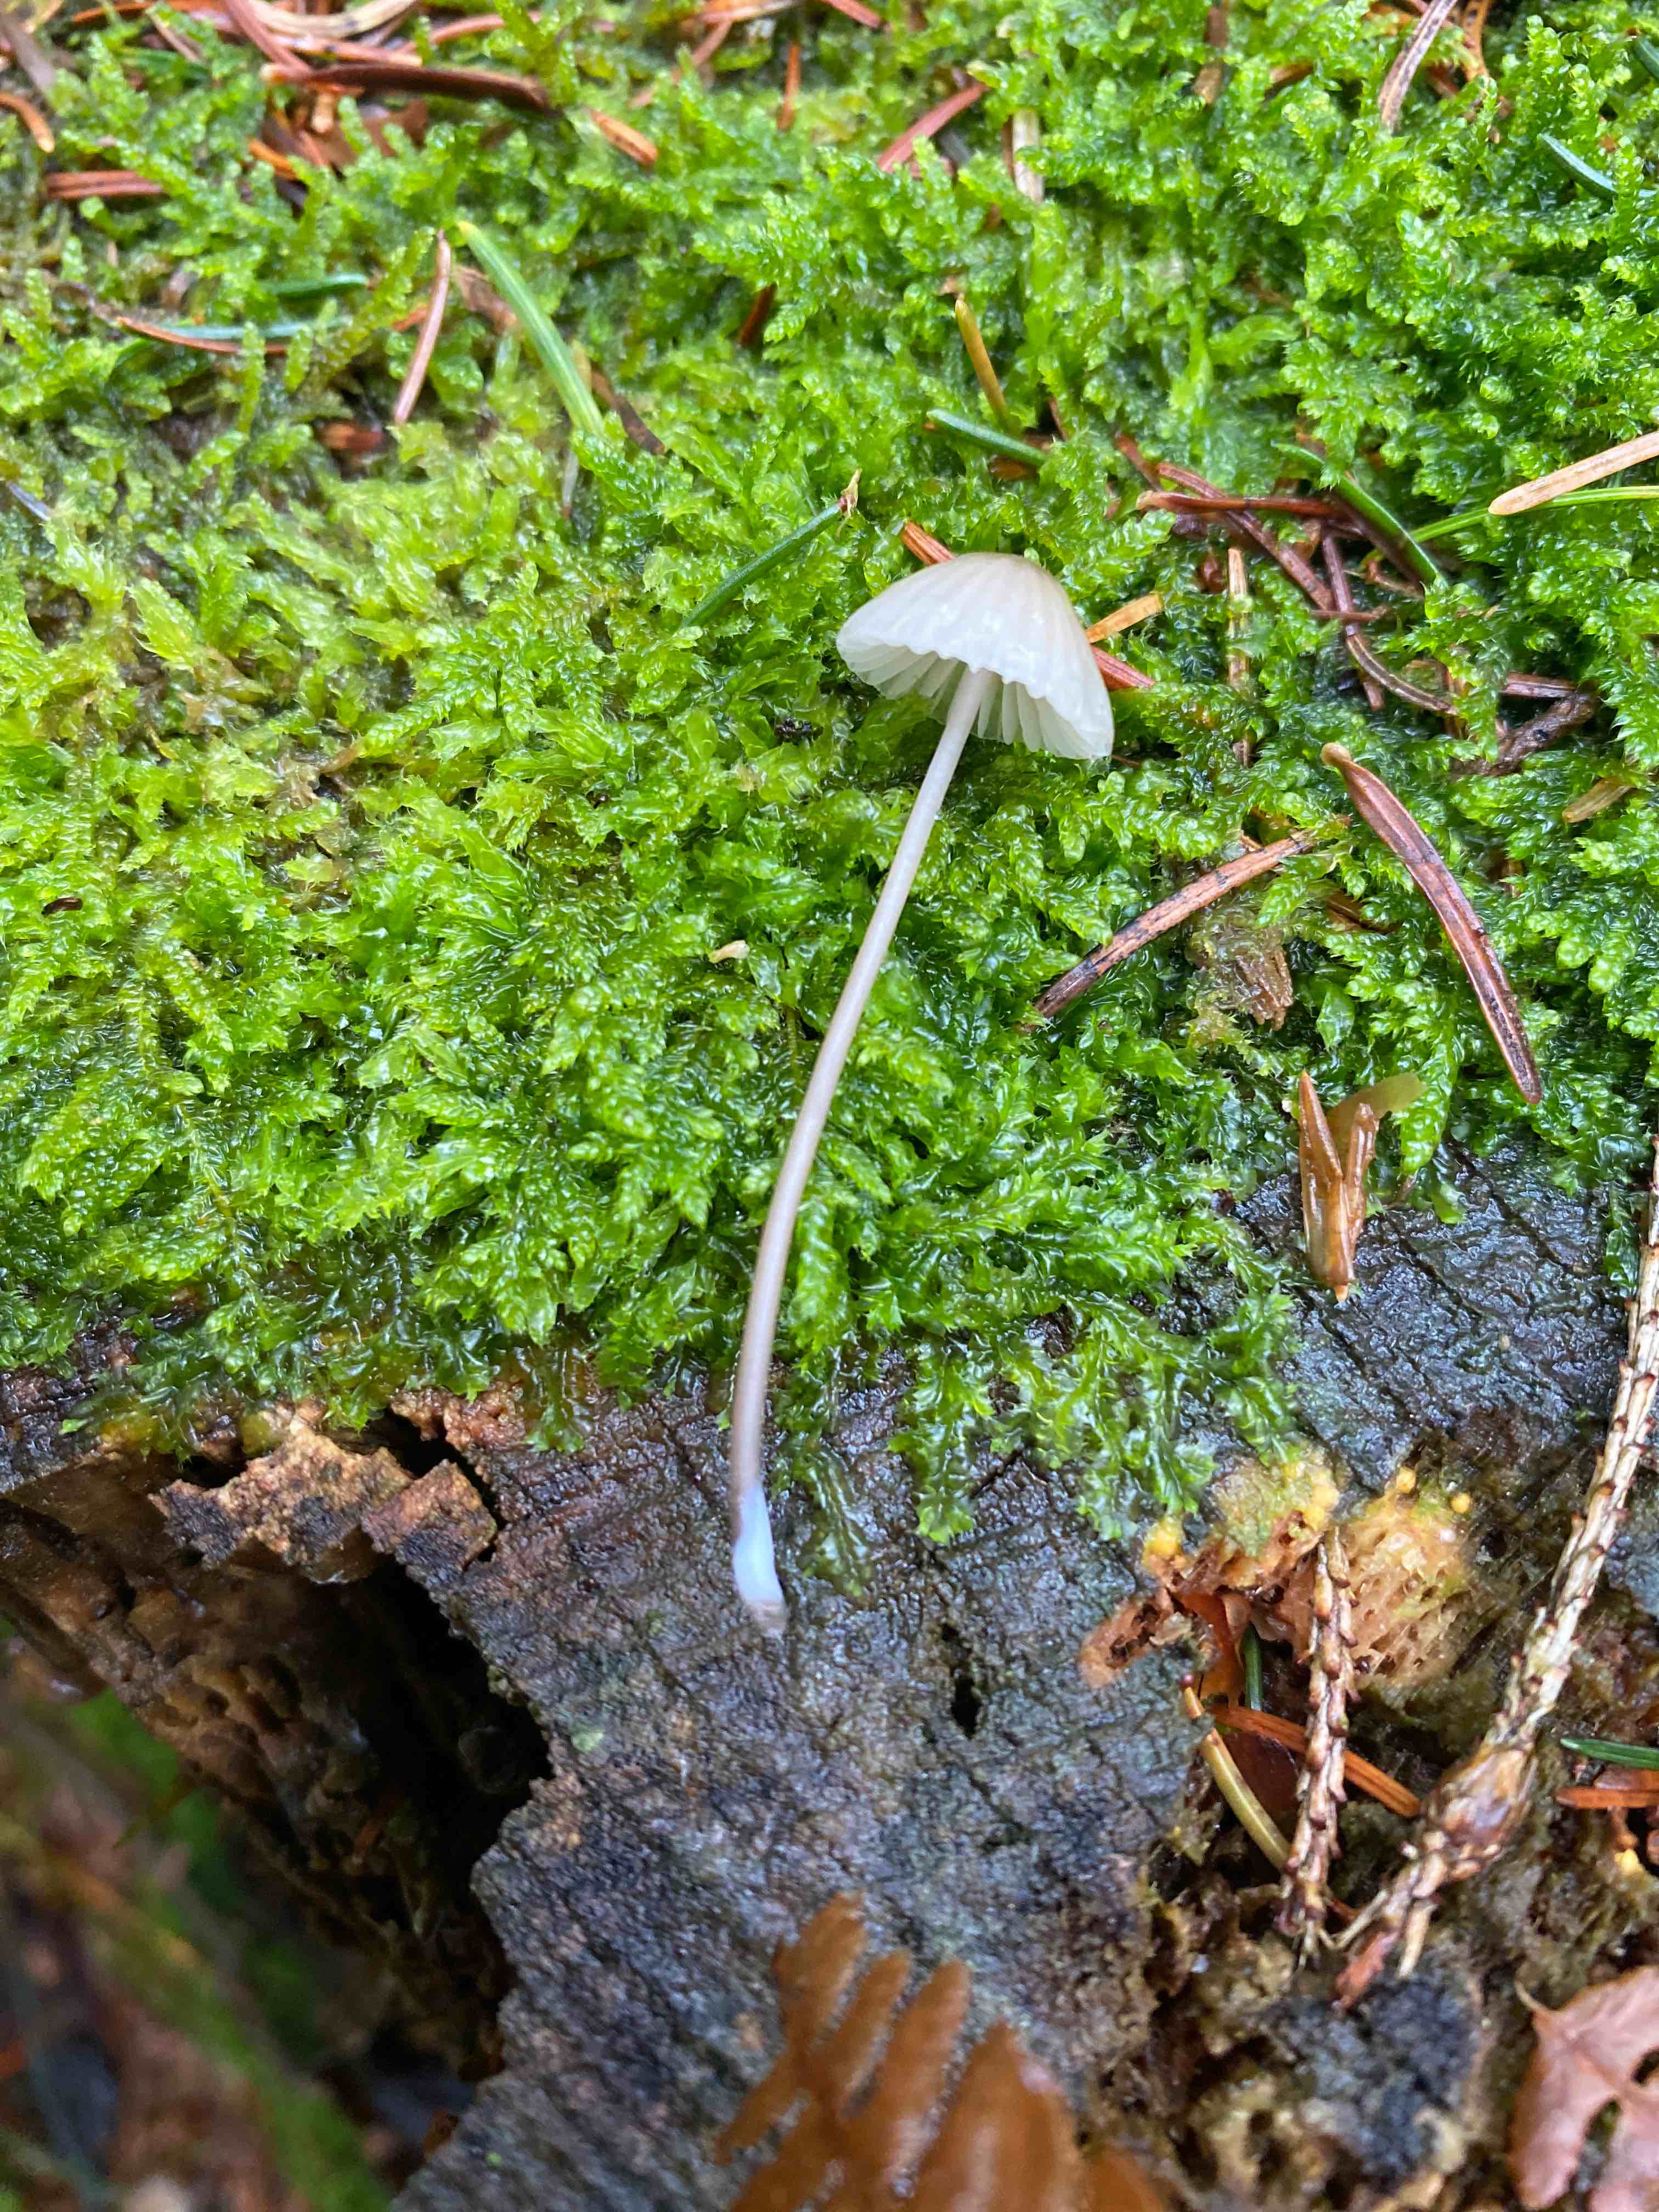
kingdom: Fungi
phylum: Basidiomycota
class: Agaricomycetes
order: Agaricales
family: Mycenaceae
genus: Mycena
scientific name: Mycena galopus
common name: hvidmælket huesvamp
